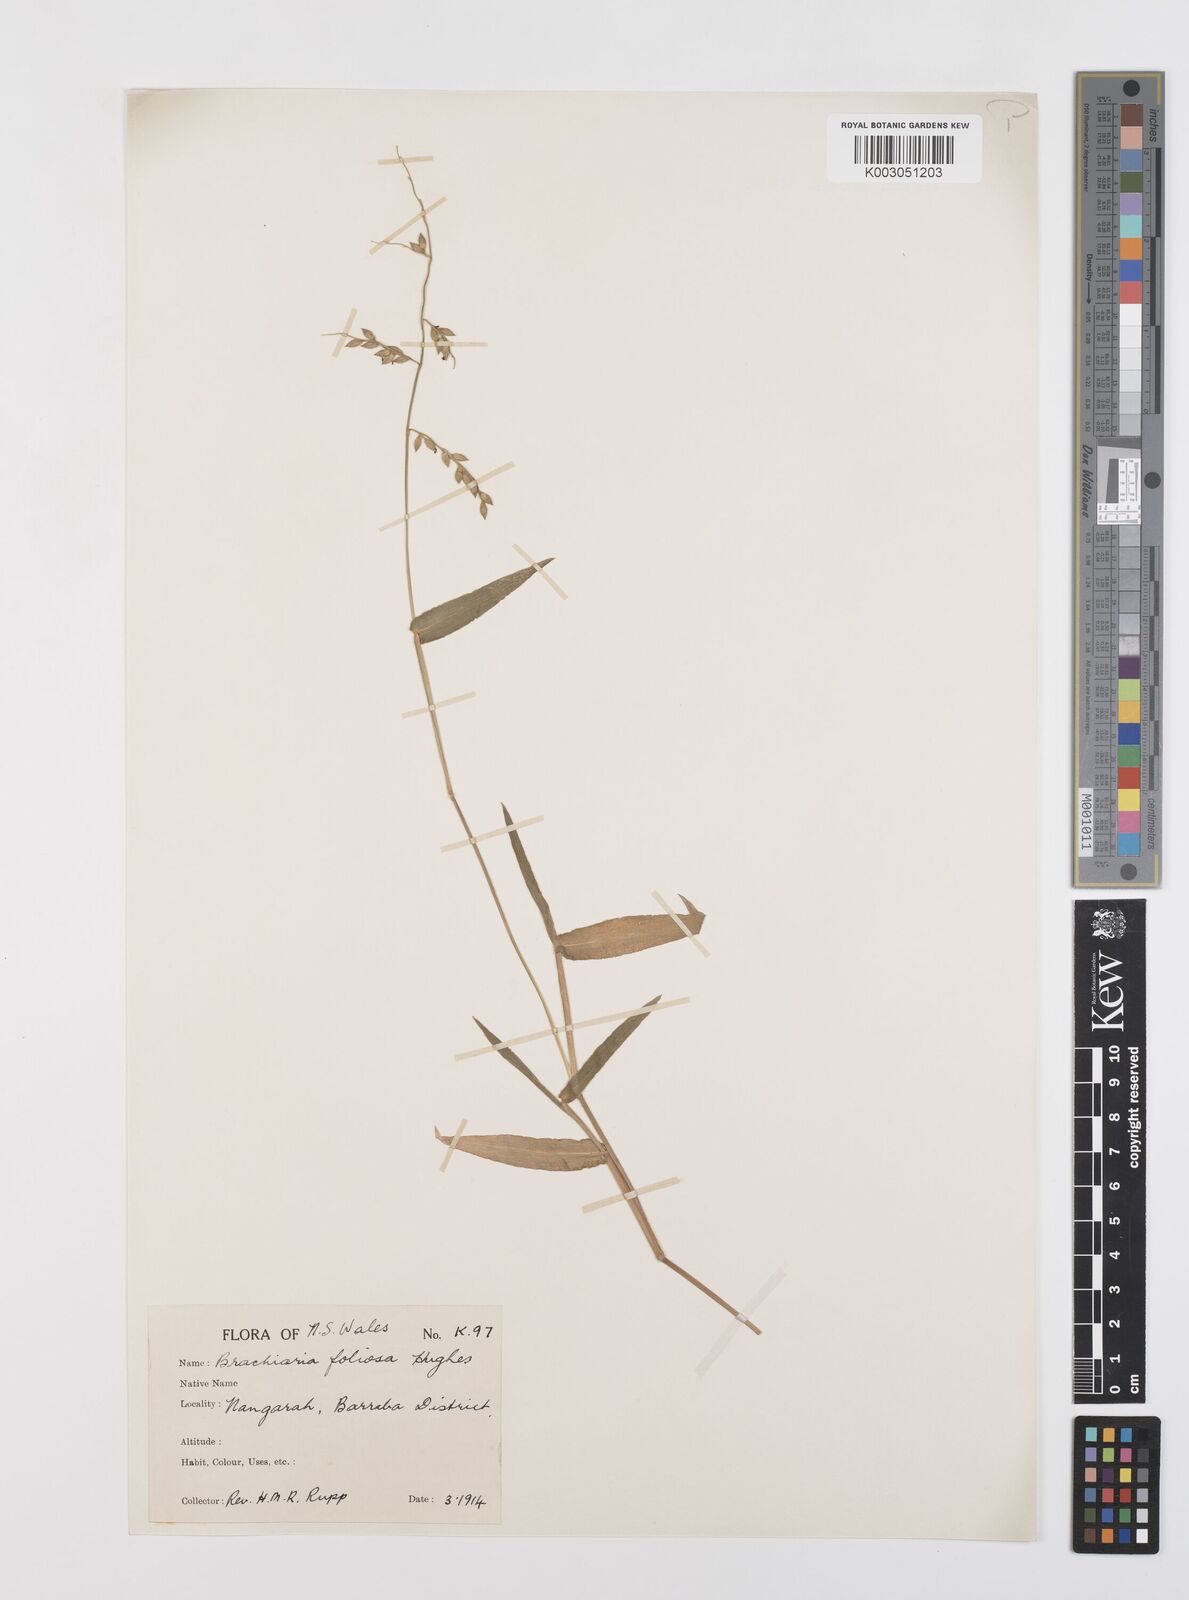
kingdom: Plantae
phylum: Tracheophyta
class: Liliopsida
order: Poales
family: Poaceae
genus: Urochloa
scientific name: Urochloa foliosa
